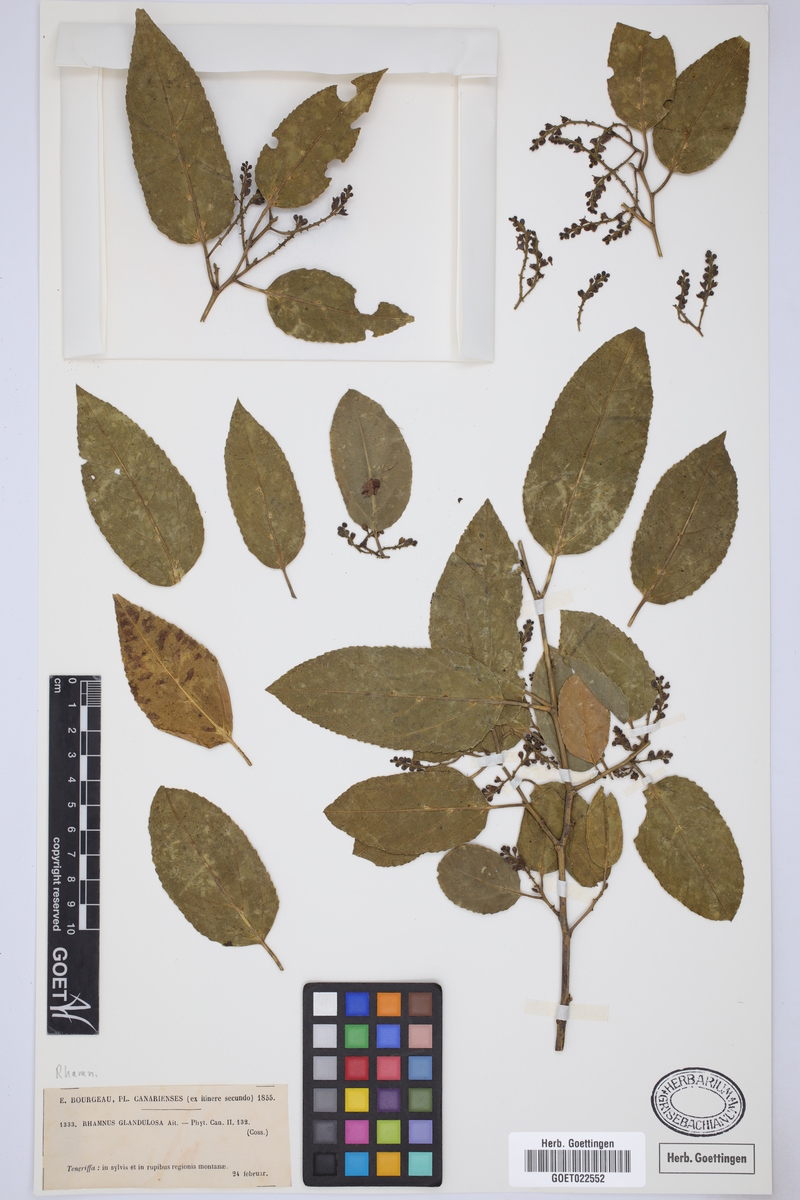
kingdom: Plantae
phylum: Tracheophyta
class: Magnoliopsida
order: Rosales
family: Rhamnaceae
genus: Rhamnus
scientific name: Rhamnus glandulosa
